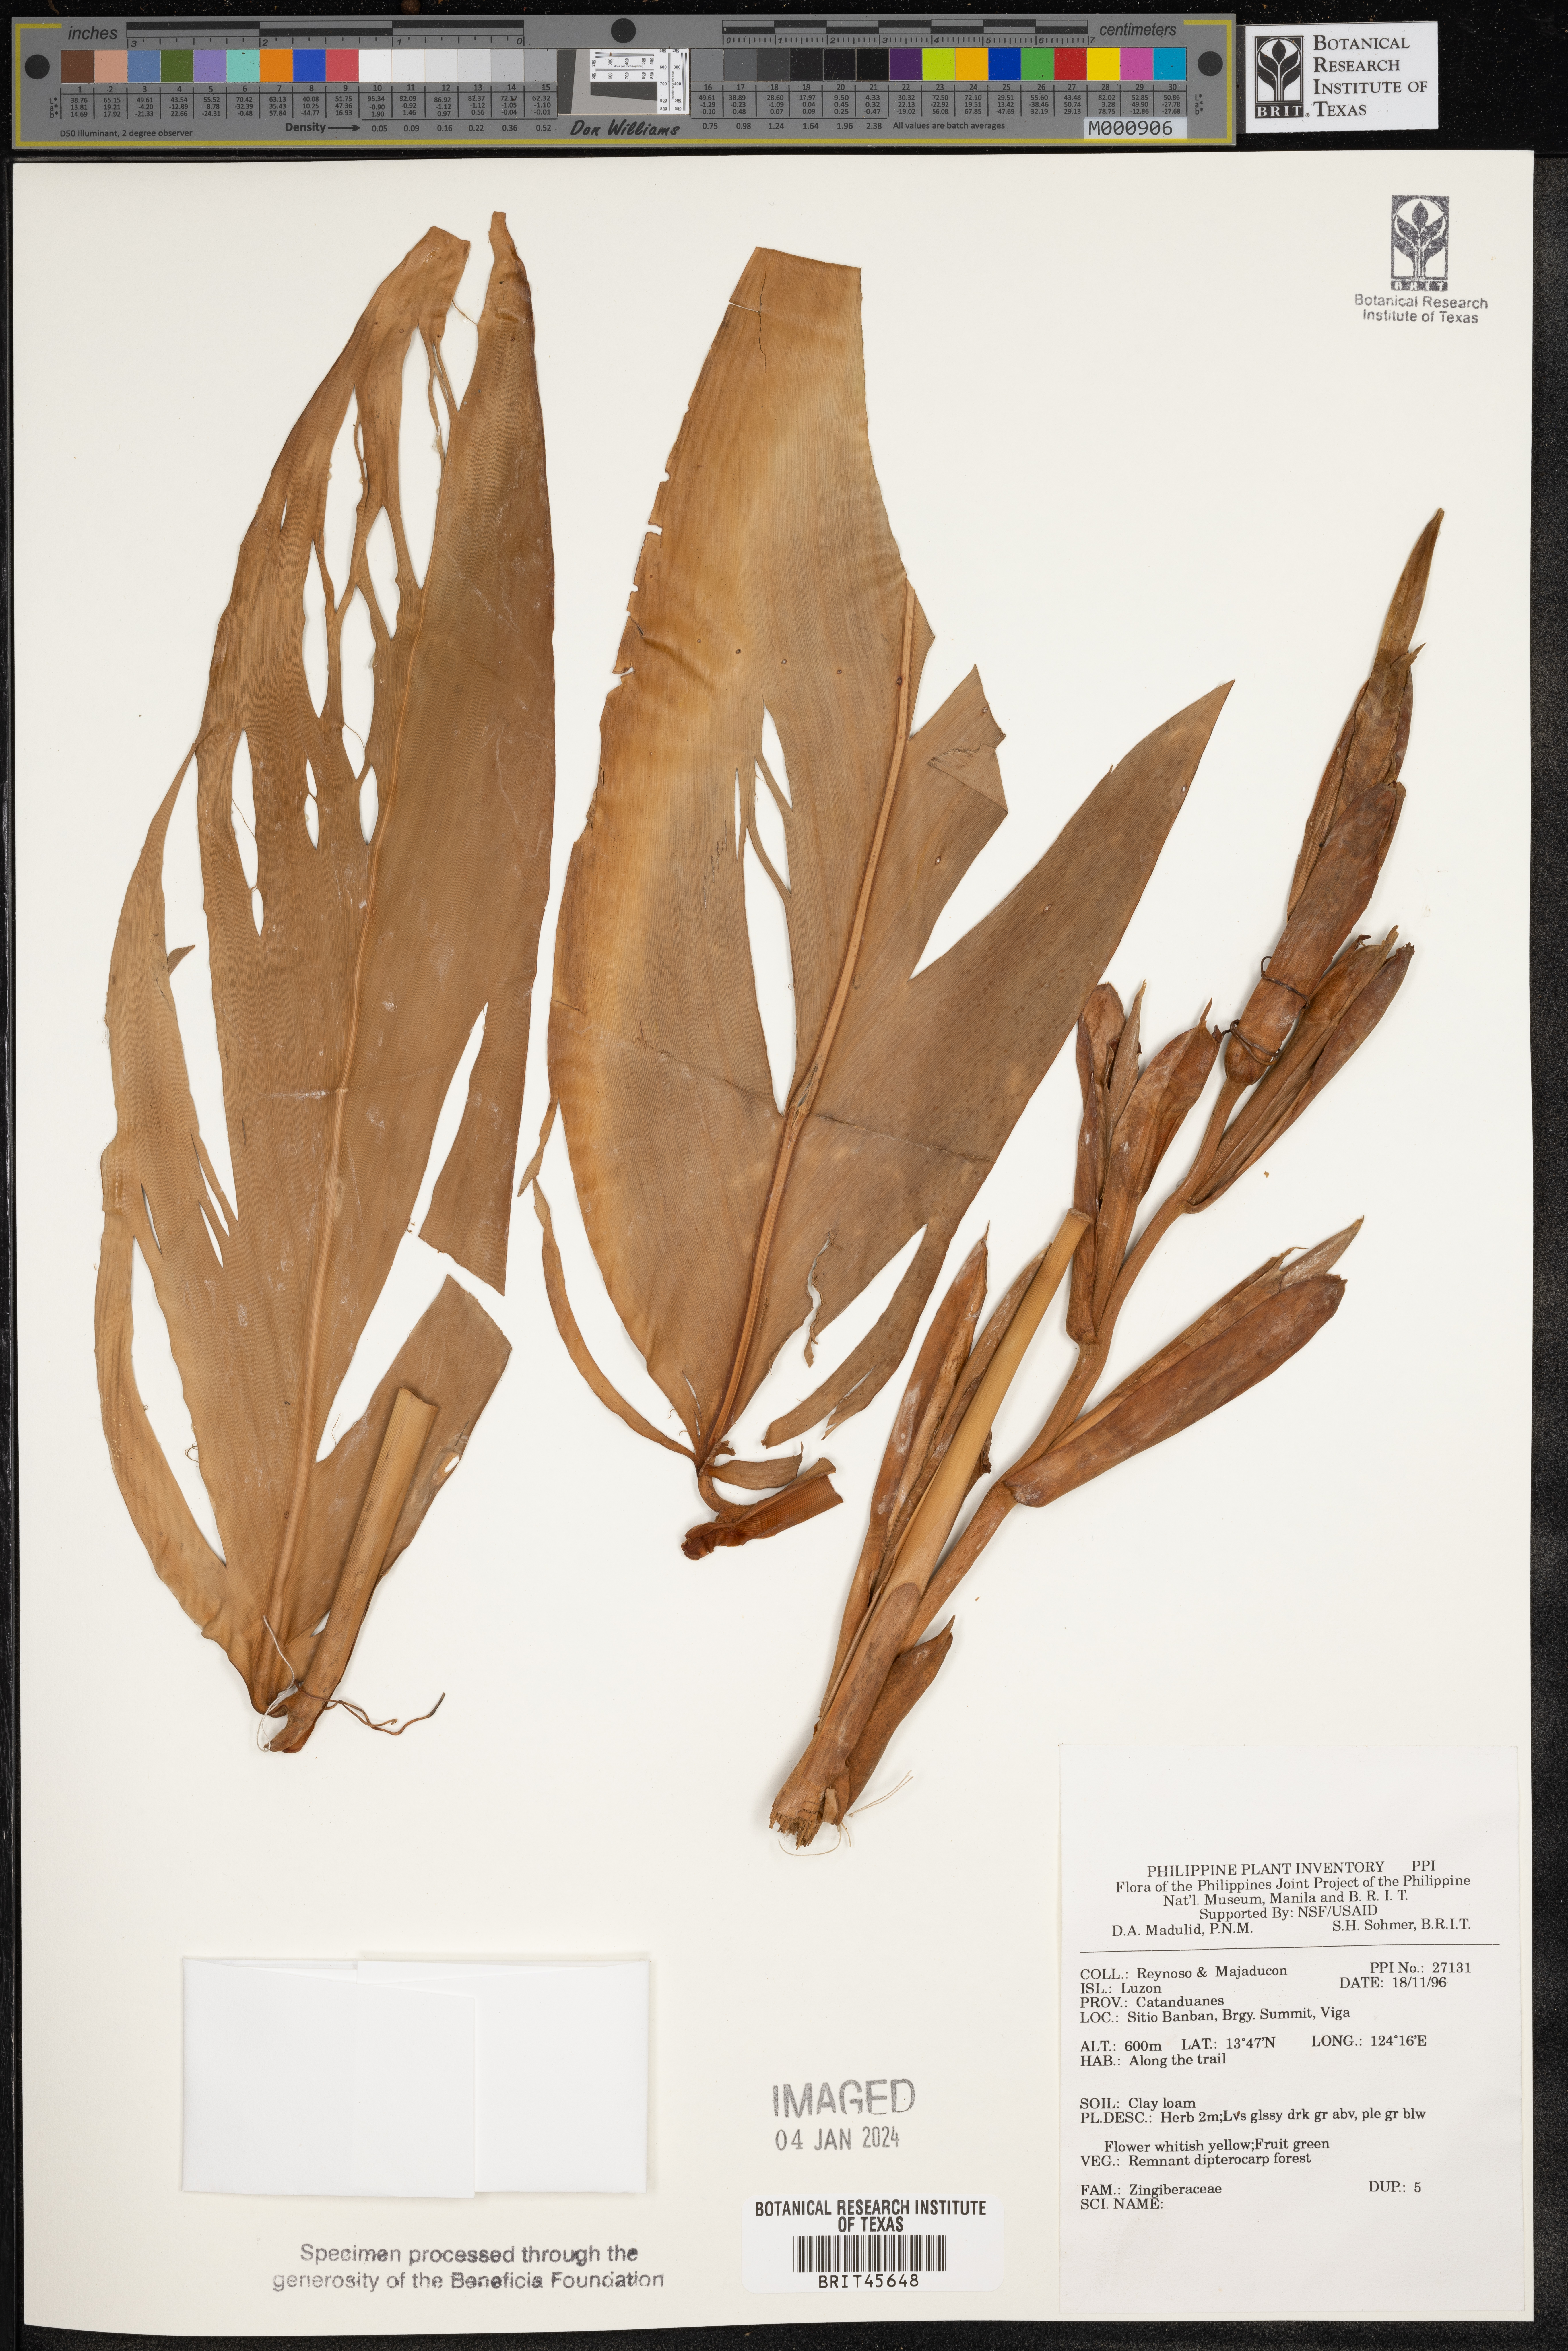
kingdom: Plantae
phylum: Tracheophyta
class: Liliopsida
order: Zingiberales
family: Zingiberaceae
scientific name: Zingiberaceae
